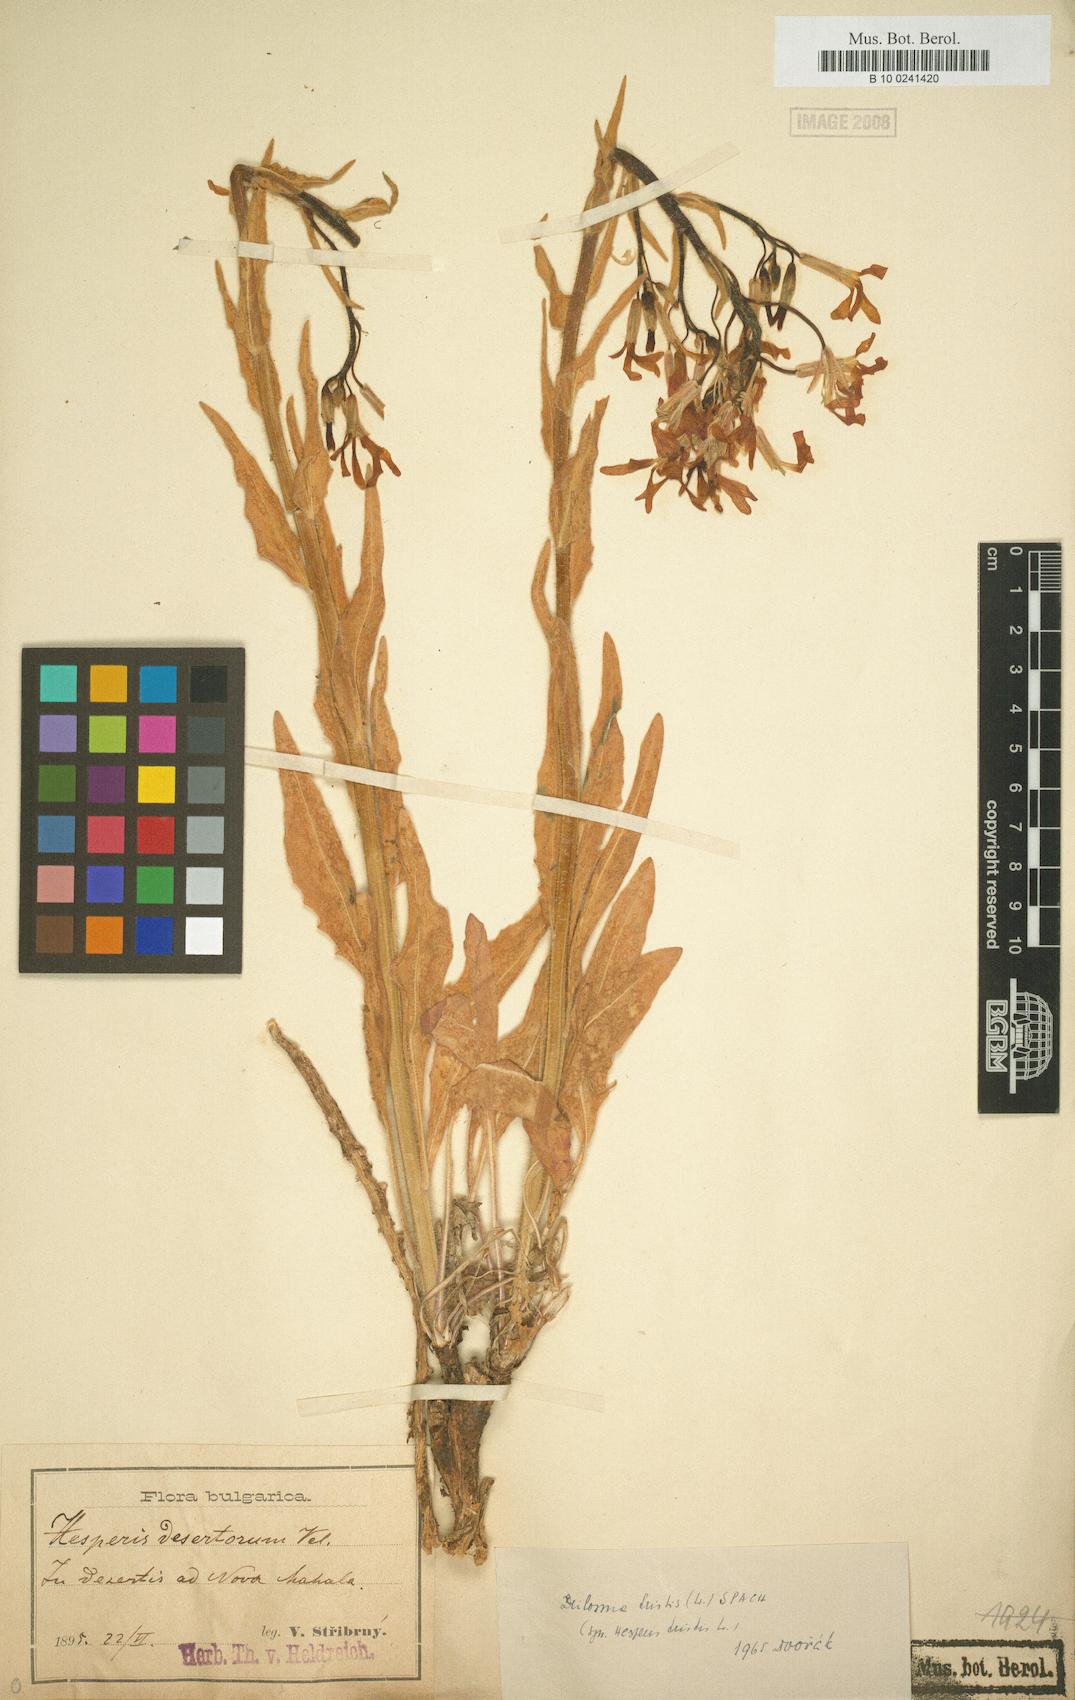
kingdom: Plantae
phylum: Tracheophyta
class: Magnoliopsida
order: Brassicales
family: Brassicaceae
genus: Hesperis
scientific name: Hesperis tristis
